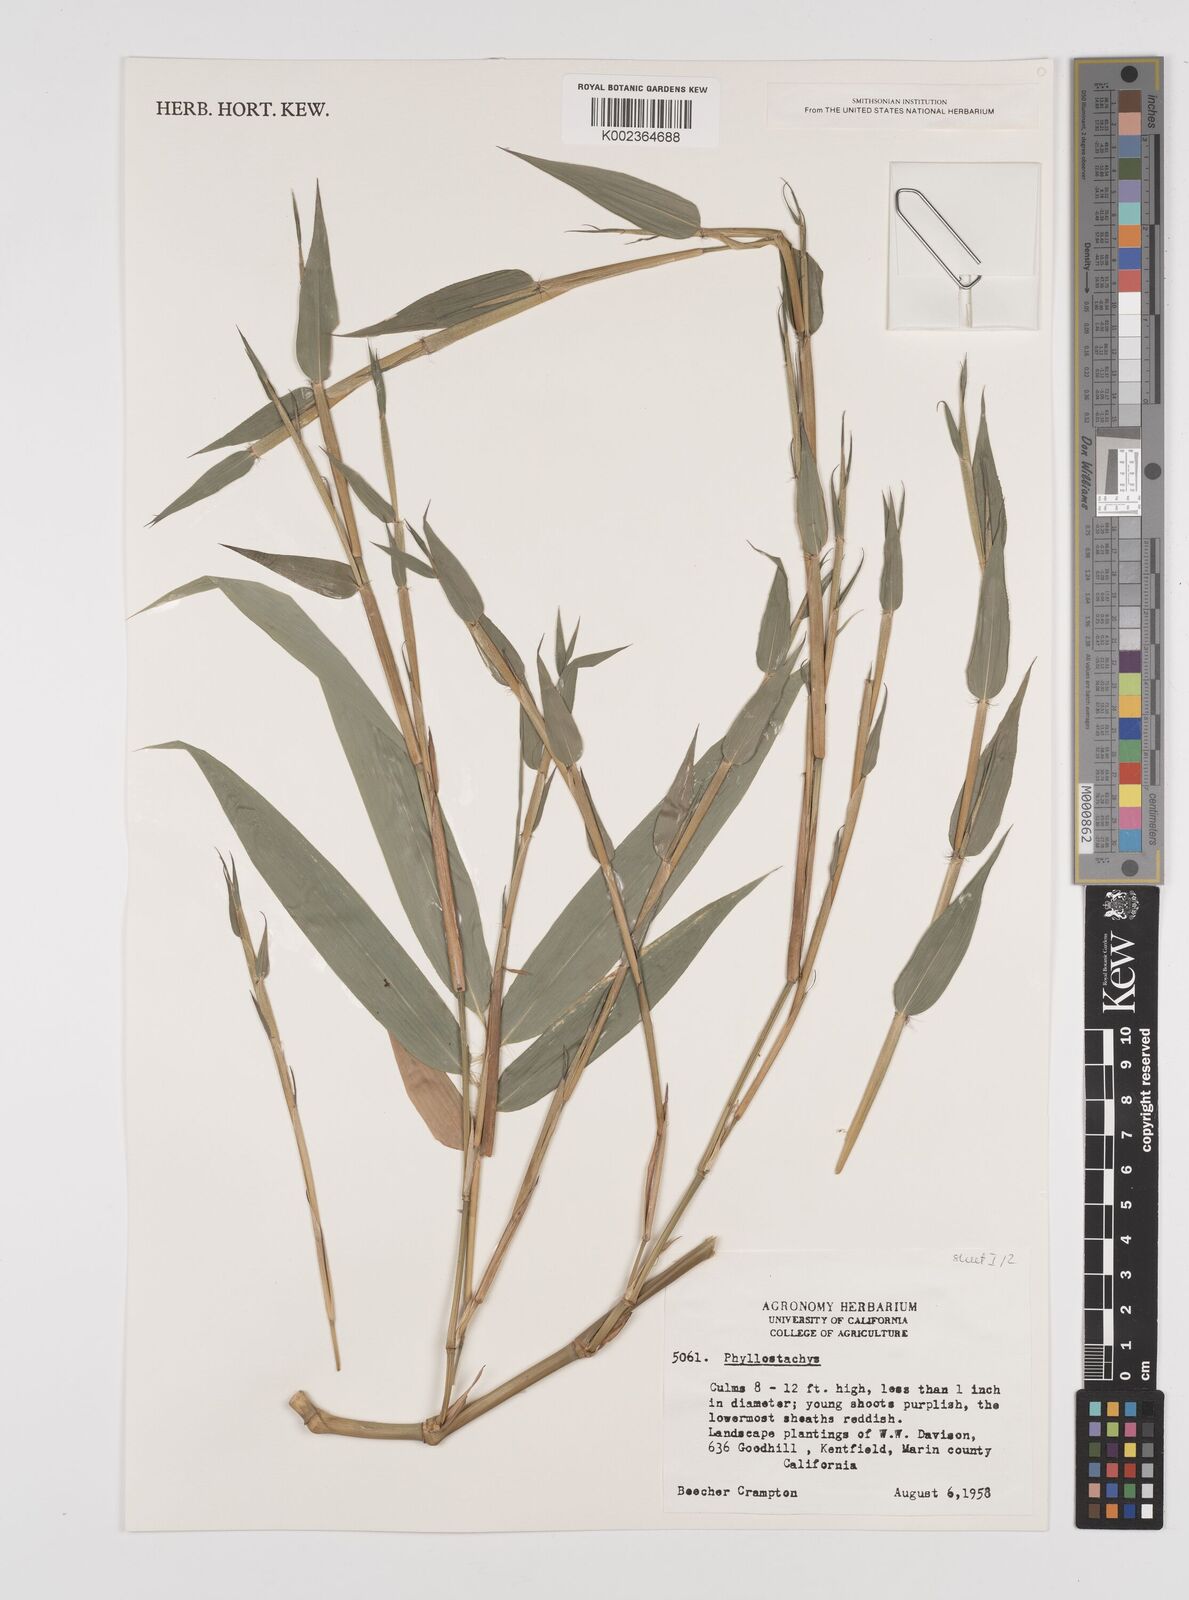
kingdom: Plantae
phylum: Tracheophyta
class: Liliopsida
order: Poales
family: Poaceae
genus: Phyllostachys
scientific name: Phyllostachys
